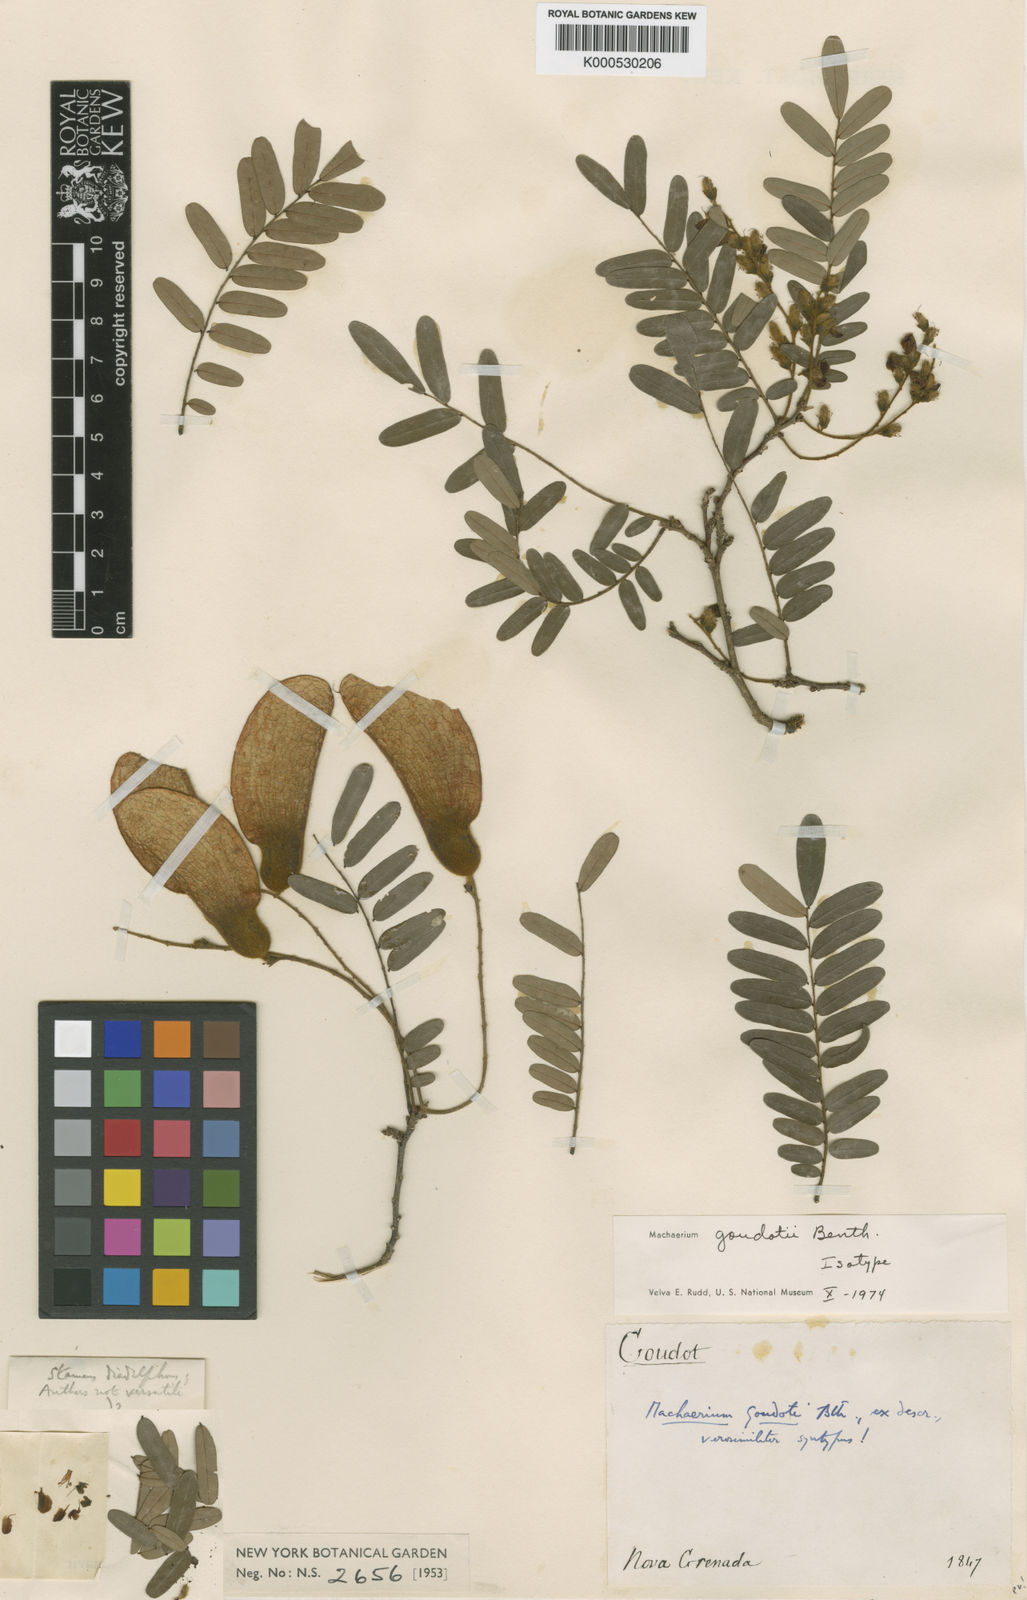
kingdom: Plantae
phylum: Tracheophyta
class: Magnoliopsida
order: Fabales
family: Fabaceae
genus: Machaerium
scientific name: Machaerium goudotii
